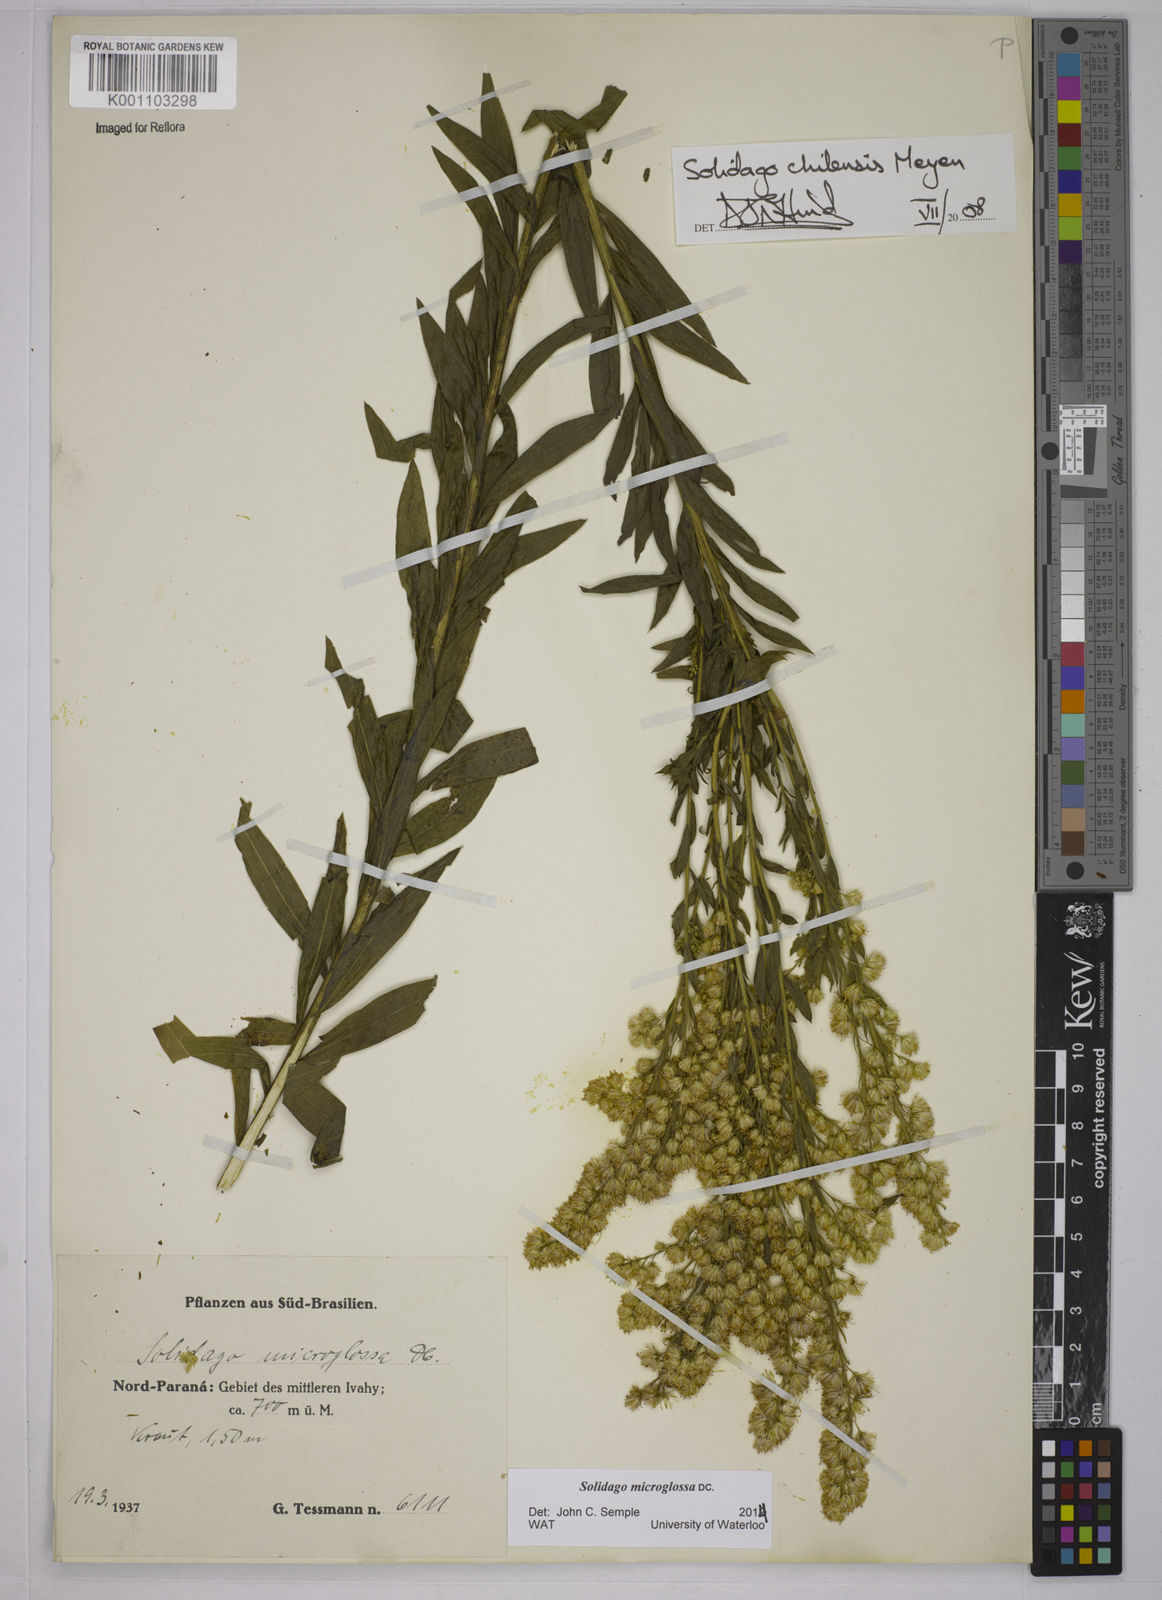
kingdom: Plantae
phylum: Tracheophyta
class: Magnoliopsida
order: Asterales
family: Asteraceae
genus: Solidago
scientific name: Solidago chilensis
